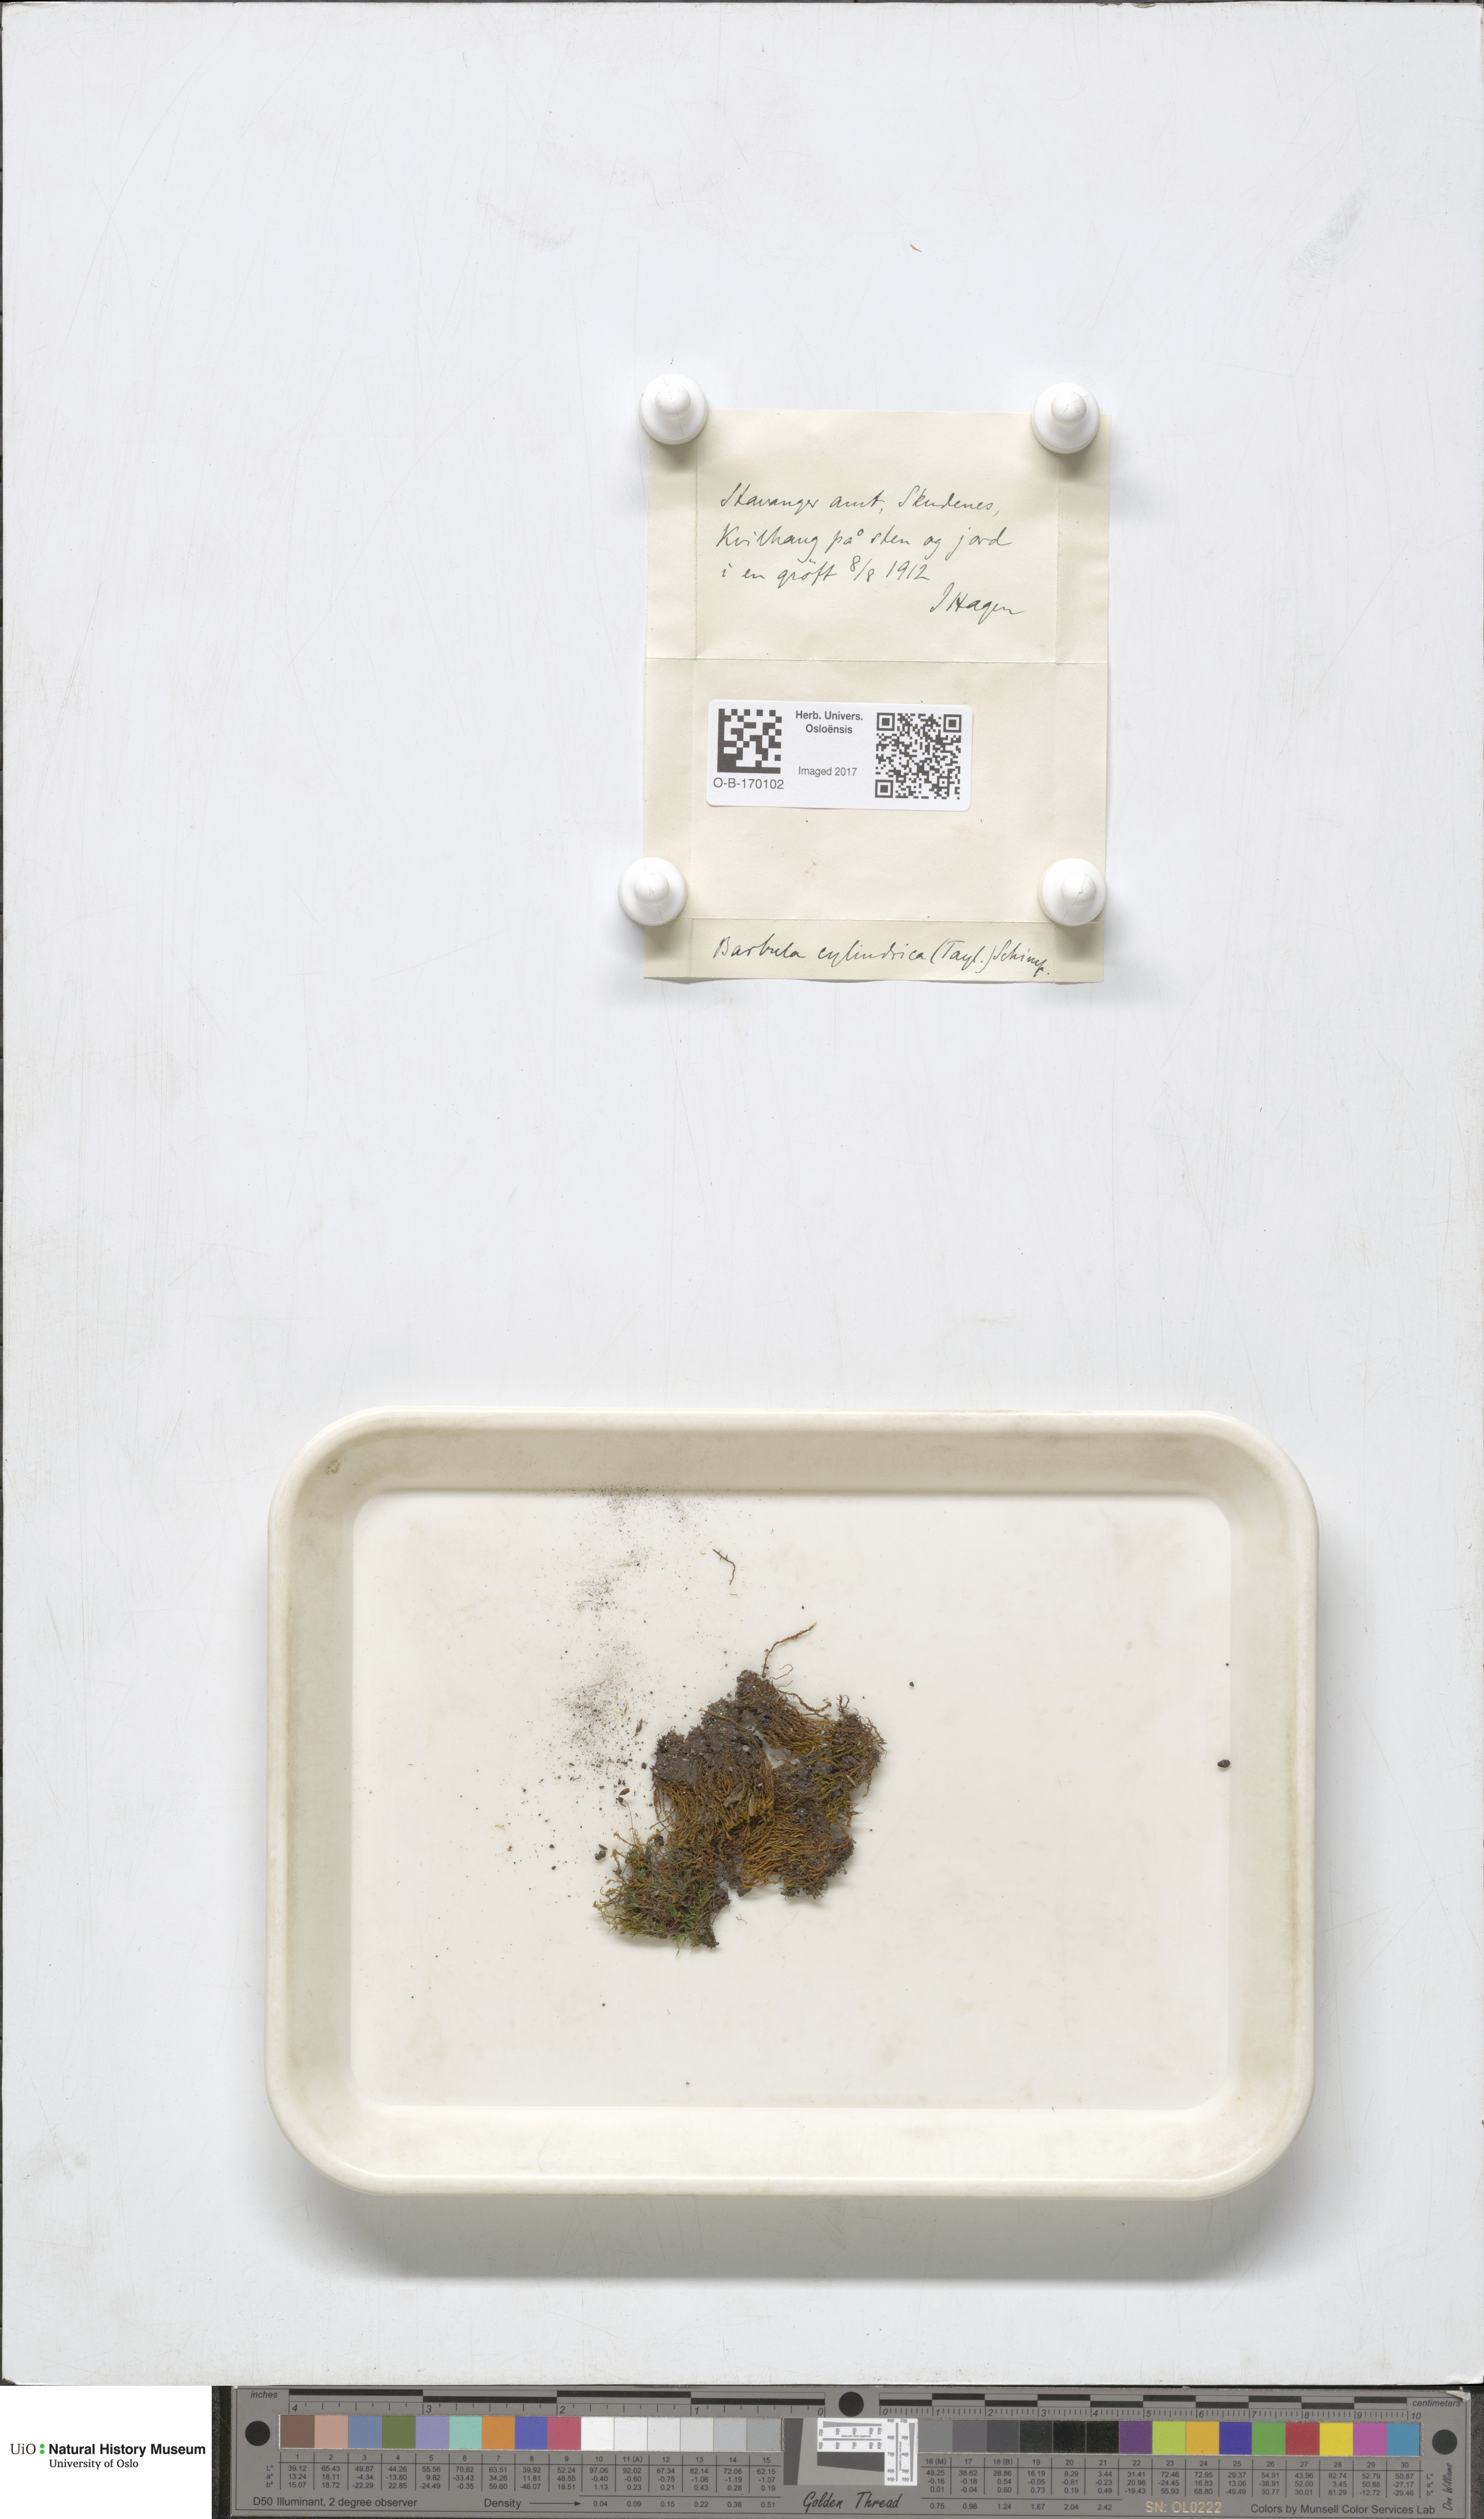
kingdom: Plantae
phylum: Bryophyta
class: Bryopsida
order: Pottiales
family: Pottiaceae
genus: Vinealobryum
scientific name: Vinealobryum insulanum
